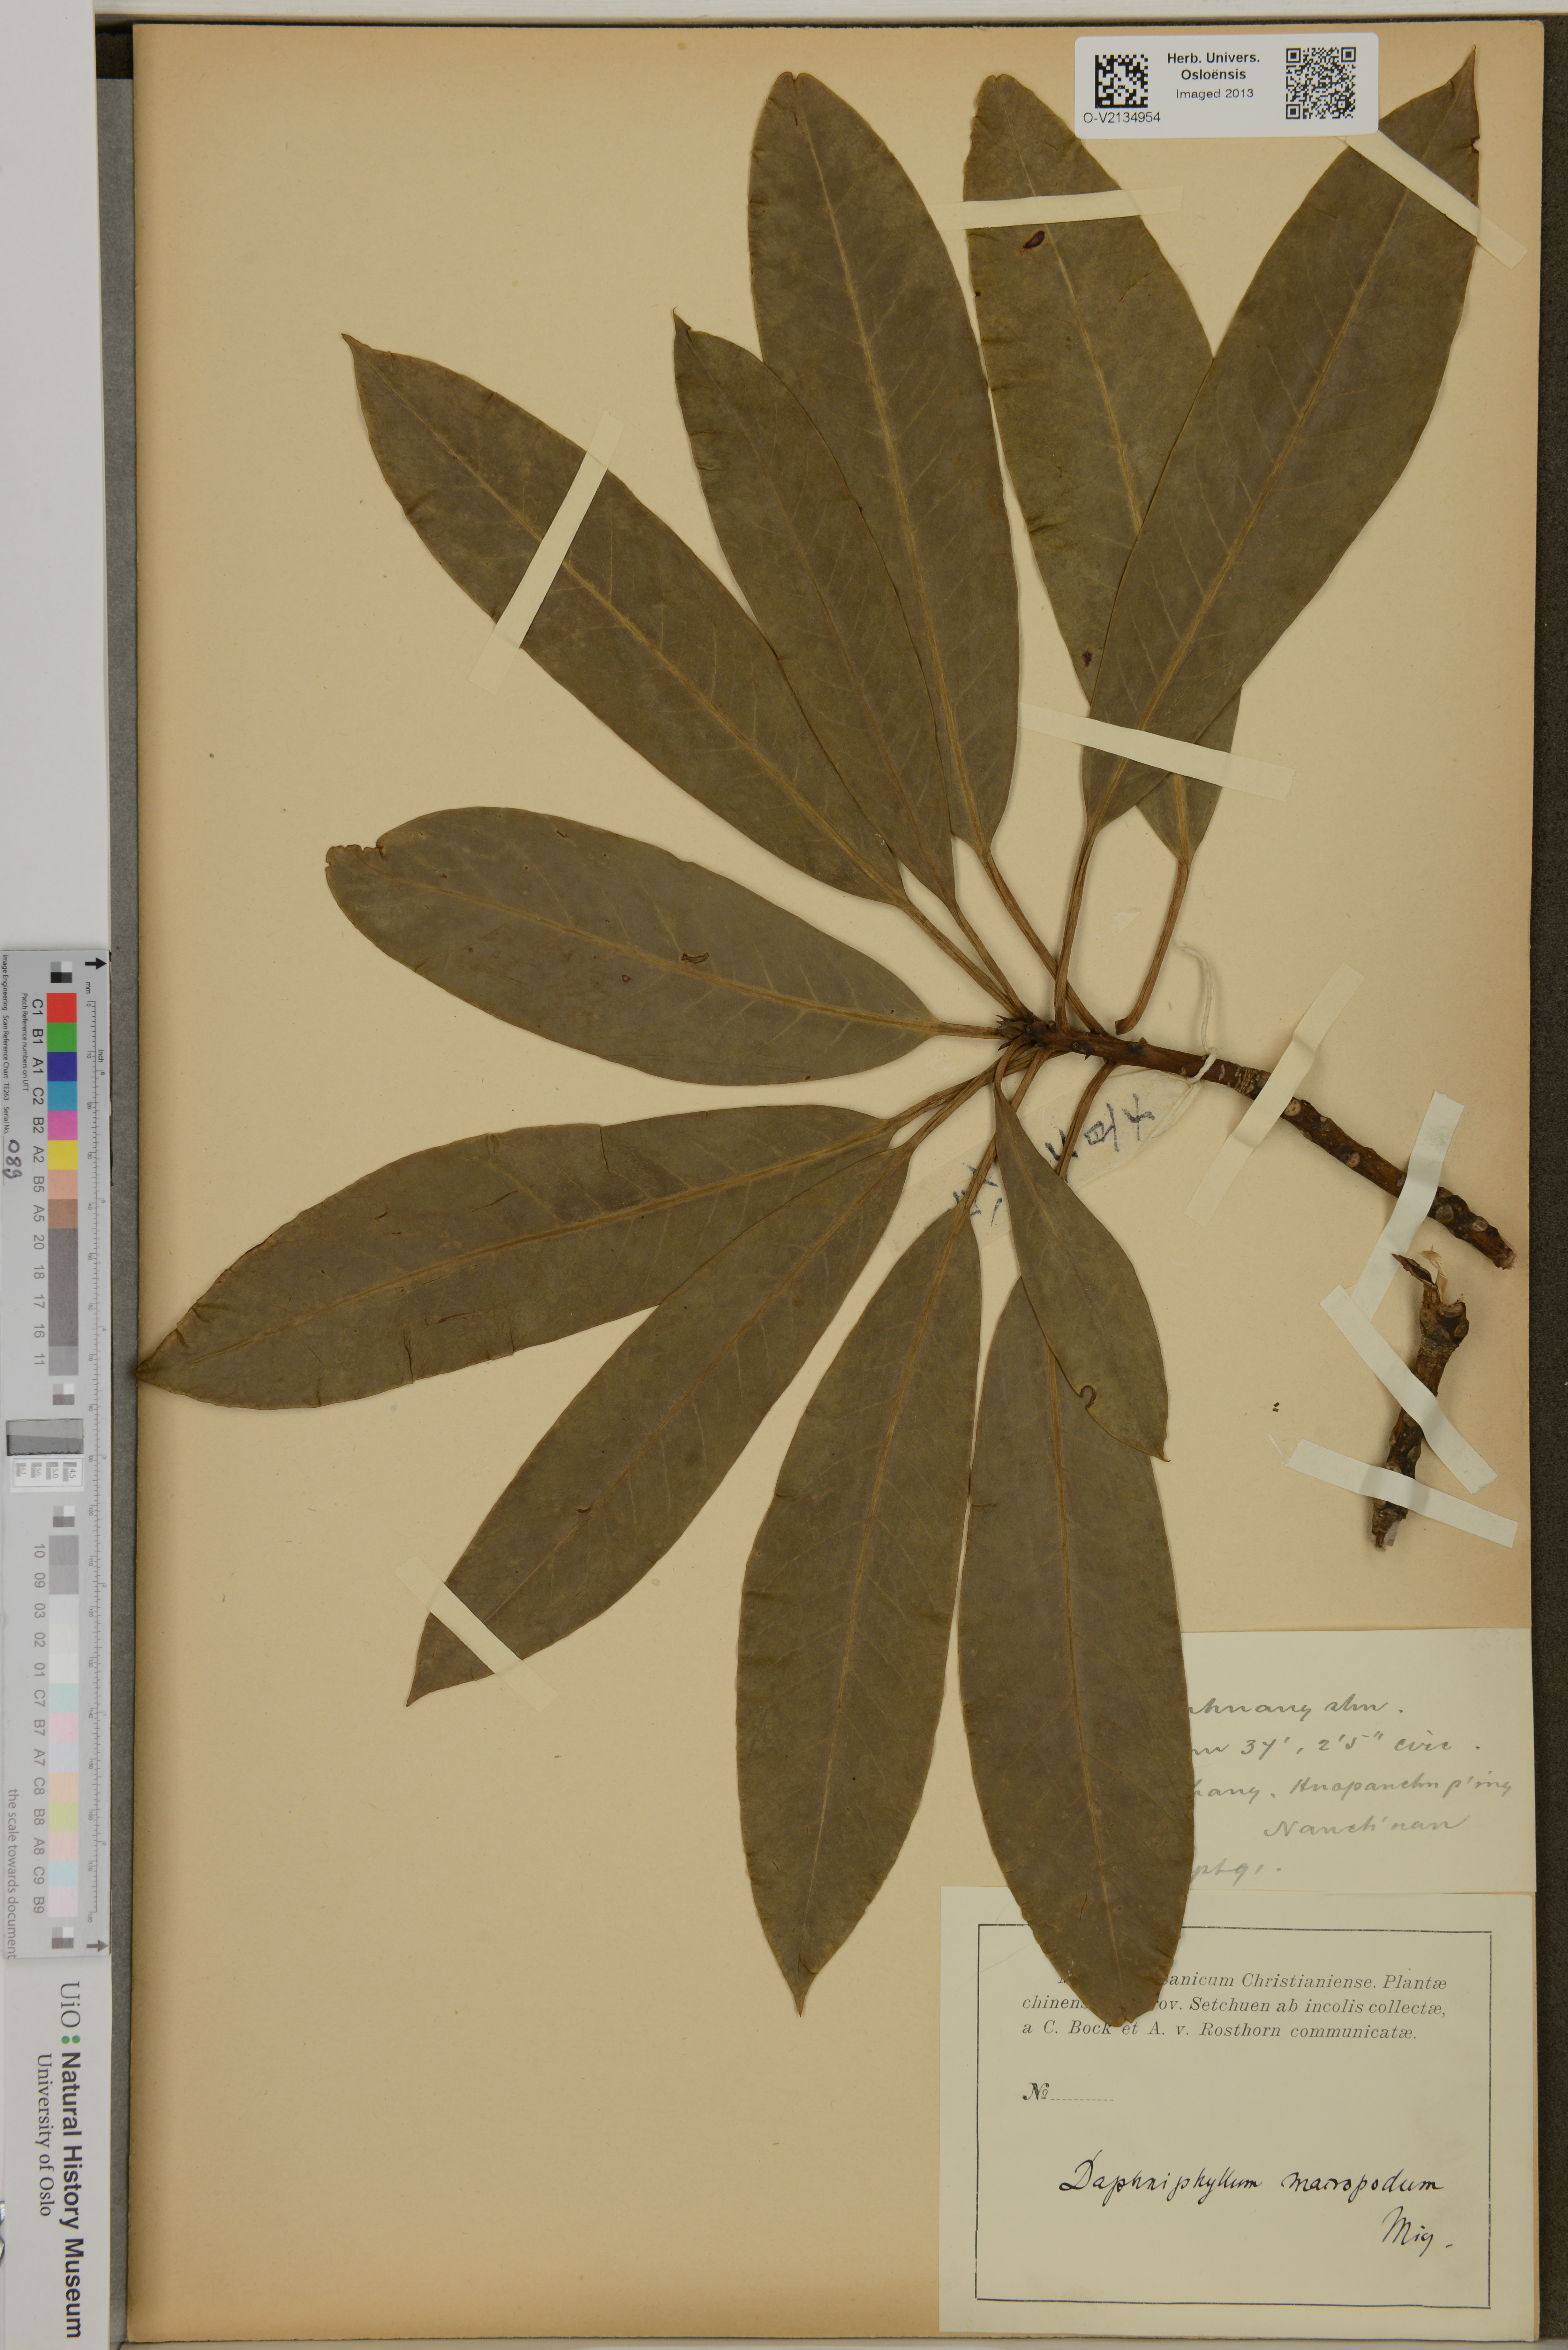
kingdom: Plantae
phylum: Tracheophyta
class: Magnoliopsida
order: Saxifragales
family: Daphniphyllaceae
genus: Daphniphyllum
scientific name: Daphniphyllum macropodum
